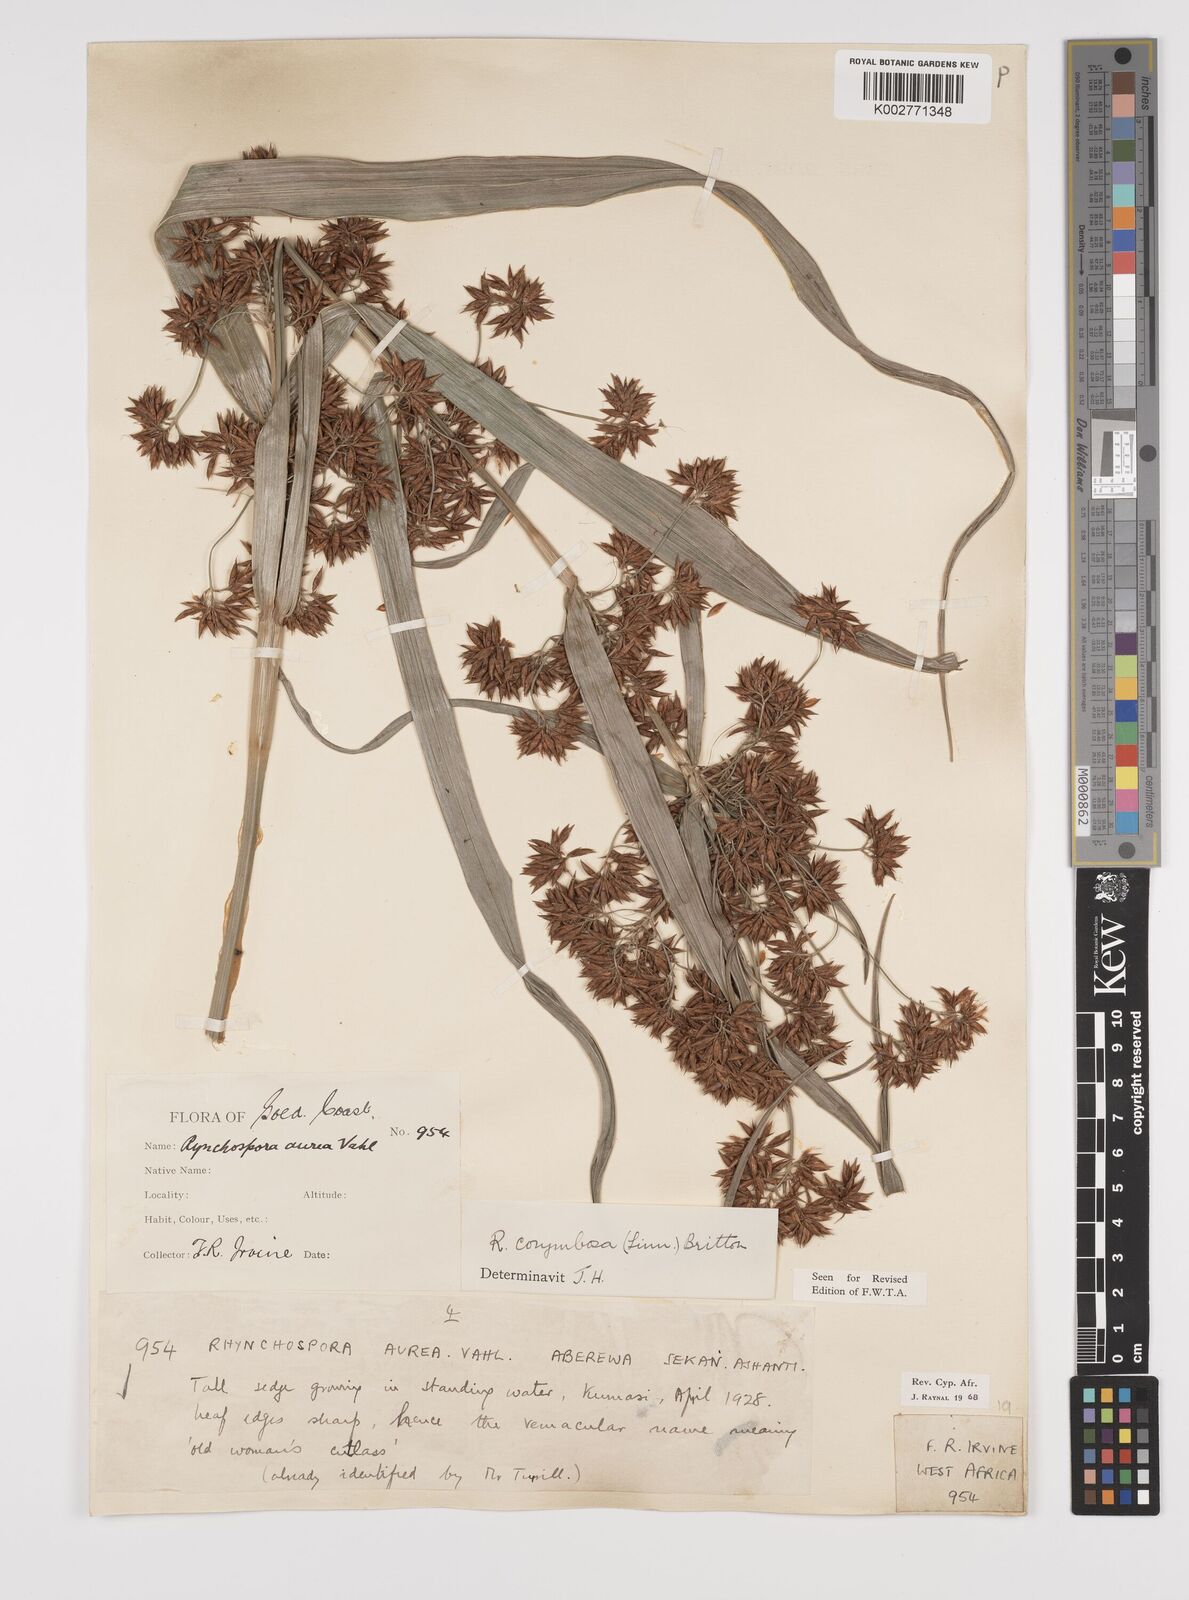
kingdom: Plantae
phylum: Tracheophyta
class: Liliopsida
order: Poales
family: Cyperaceae
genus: Rhynchospora
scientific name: Rhynchospora corymbosa
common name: Golden beak sedge
